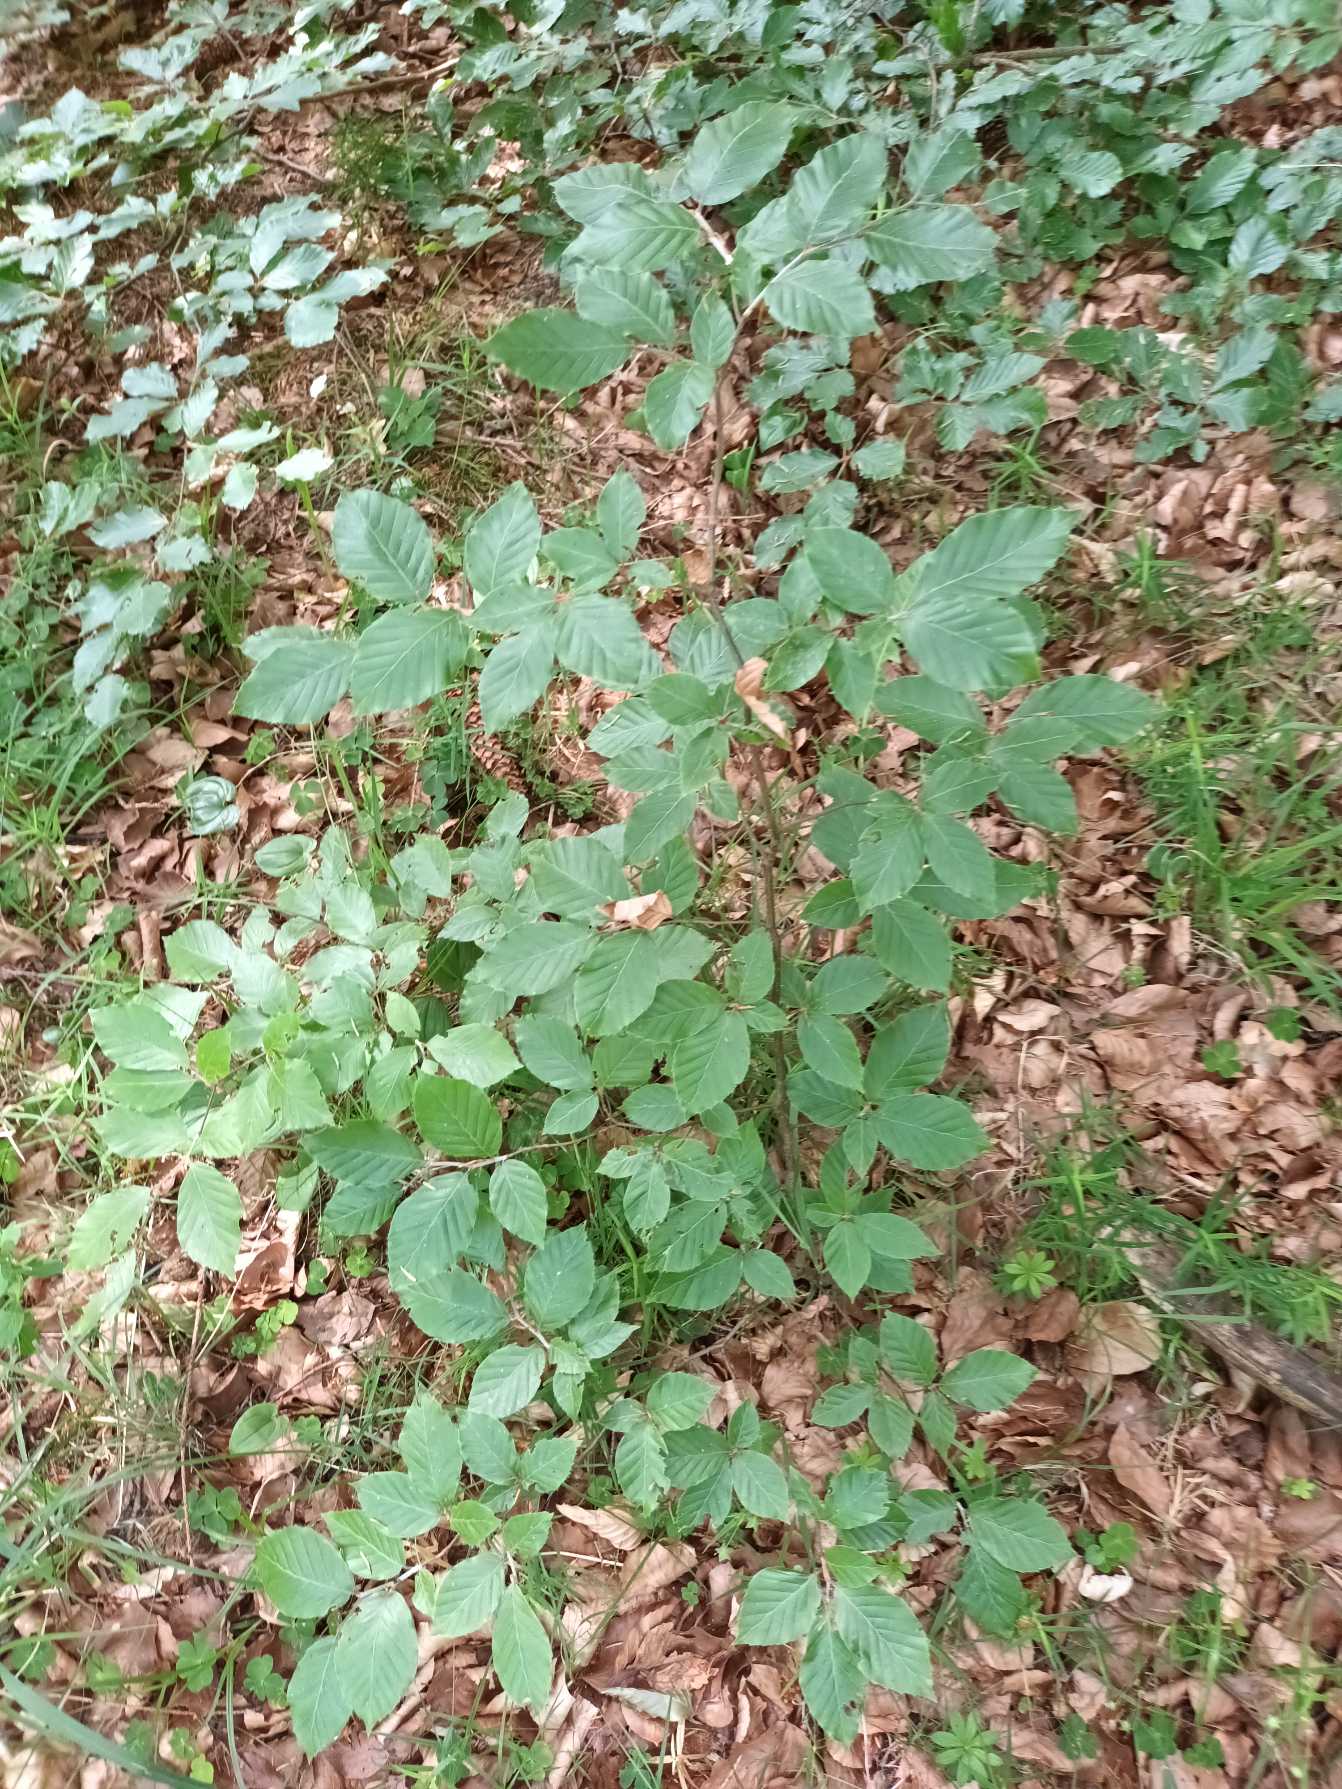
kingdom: Plantae
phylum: Tracheophyta
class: Magnoliopsida
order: Fagales
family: Fagaceae
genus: Fagus
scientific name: Fagus sylvatica
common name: Bøg
